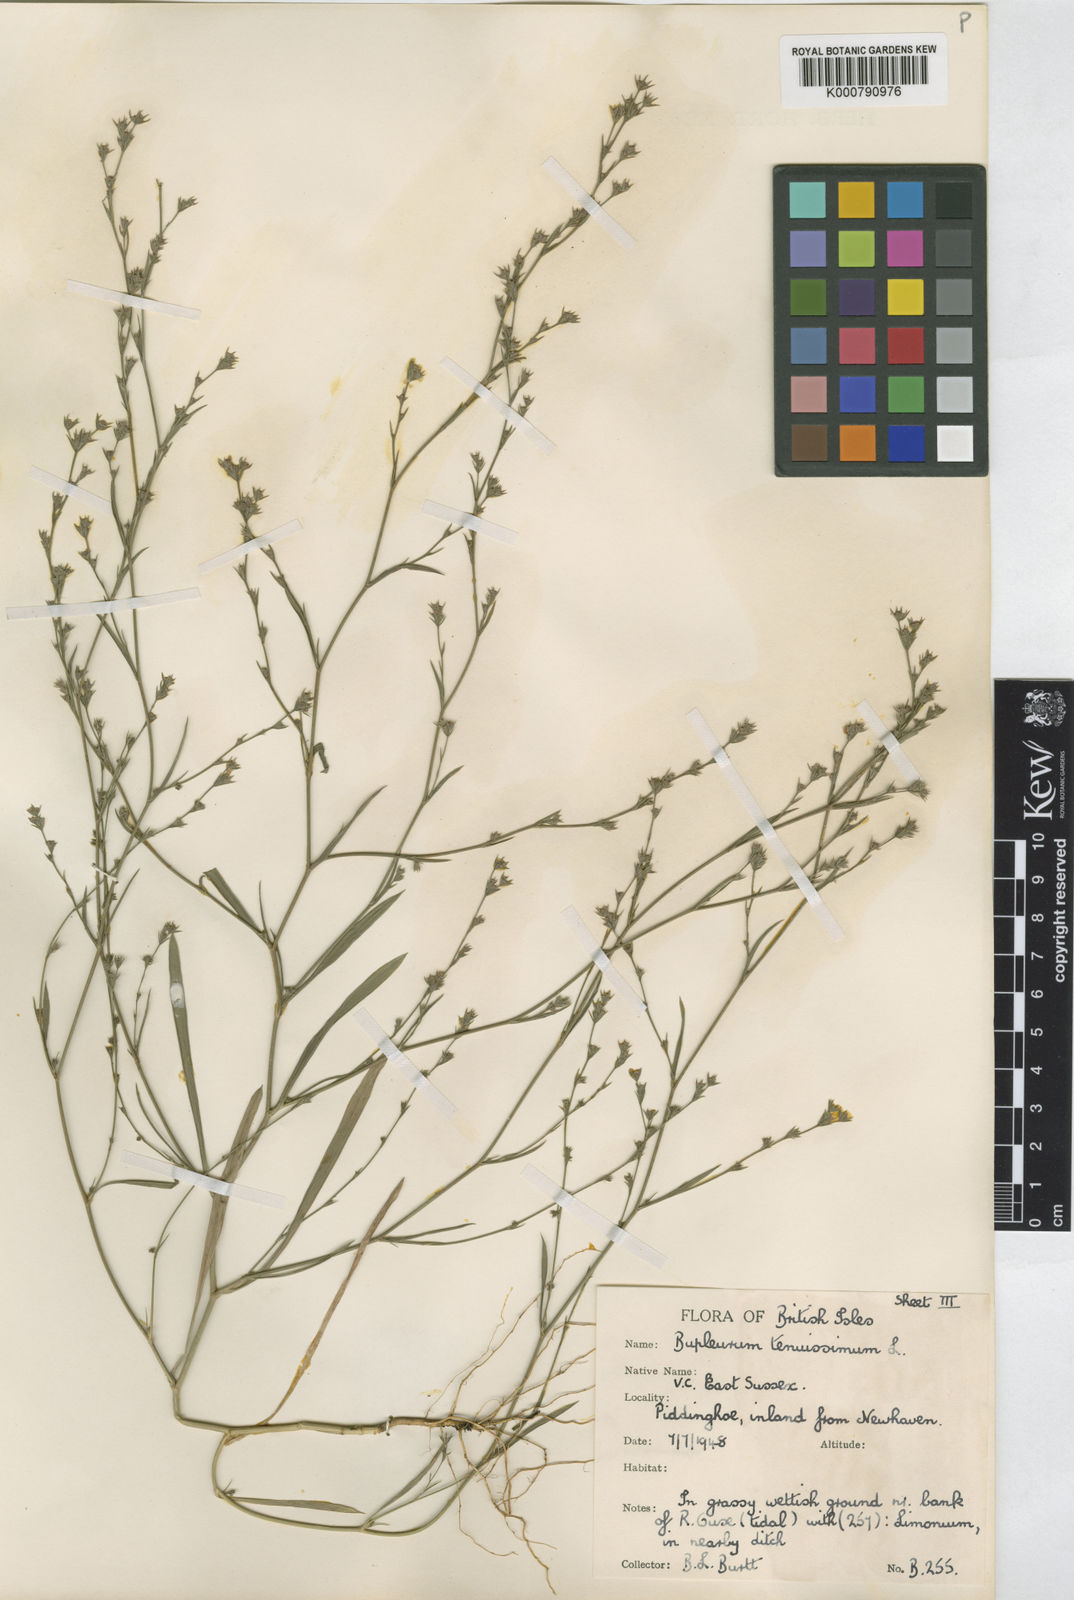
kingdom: Plantae
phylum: Tracheophyta
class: Magnoliopsida
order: Apiales
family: Apiaceae
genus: Bupleurum
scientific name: Bupleurum tenuissimum
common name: Slender hare's-ear
